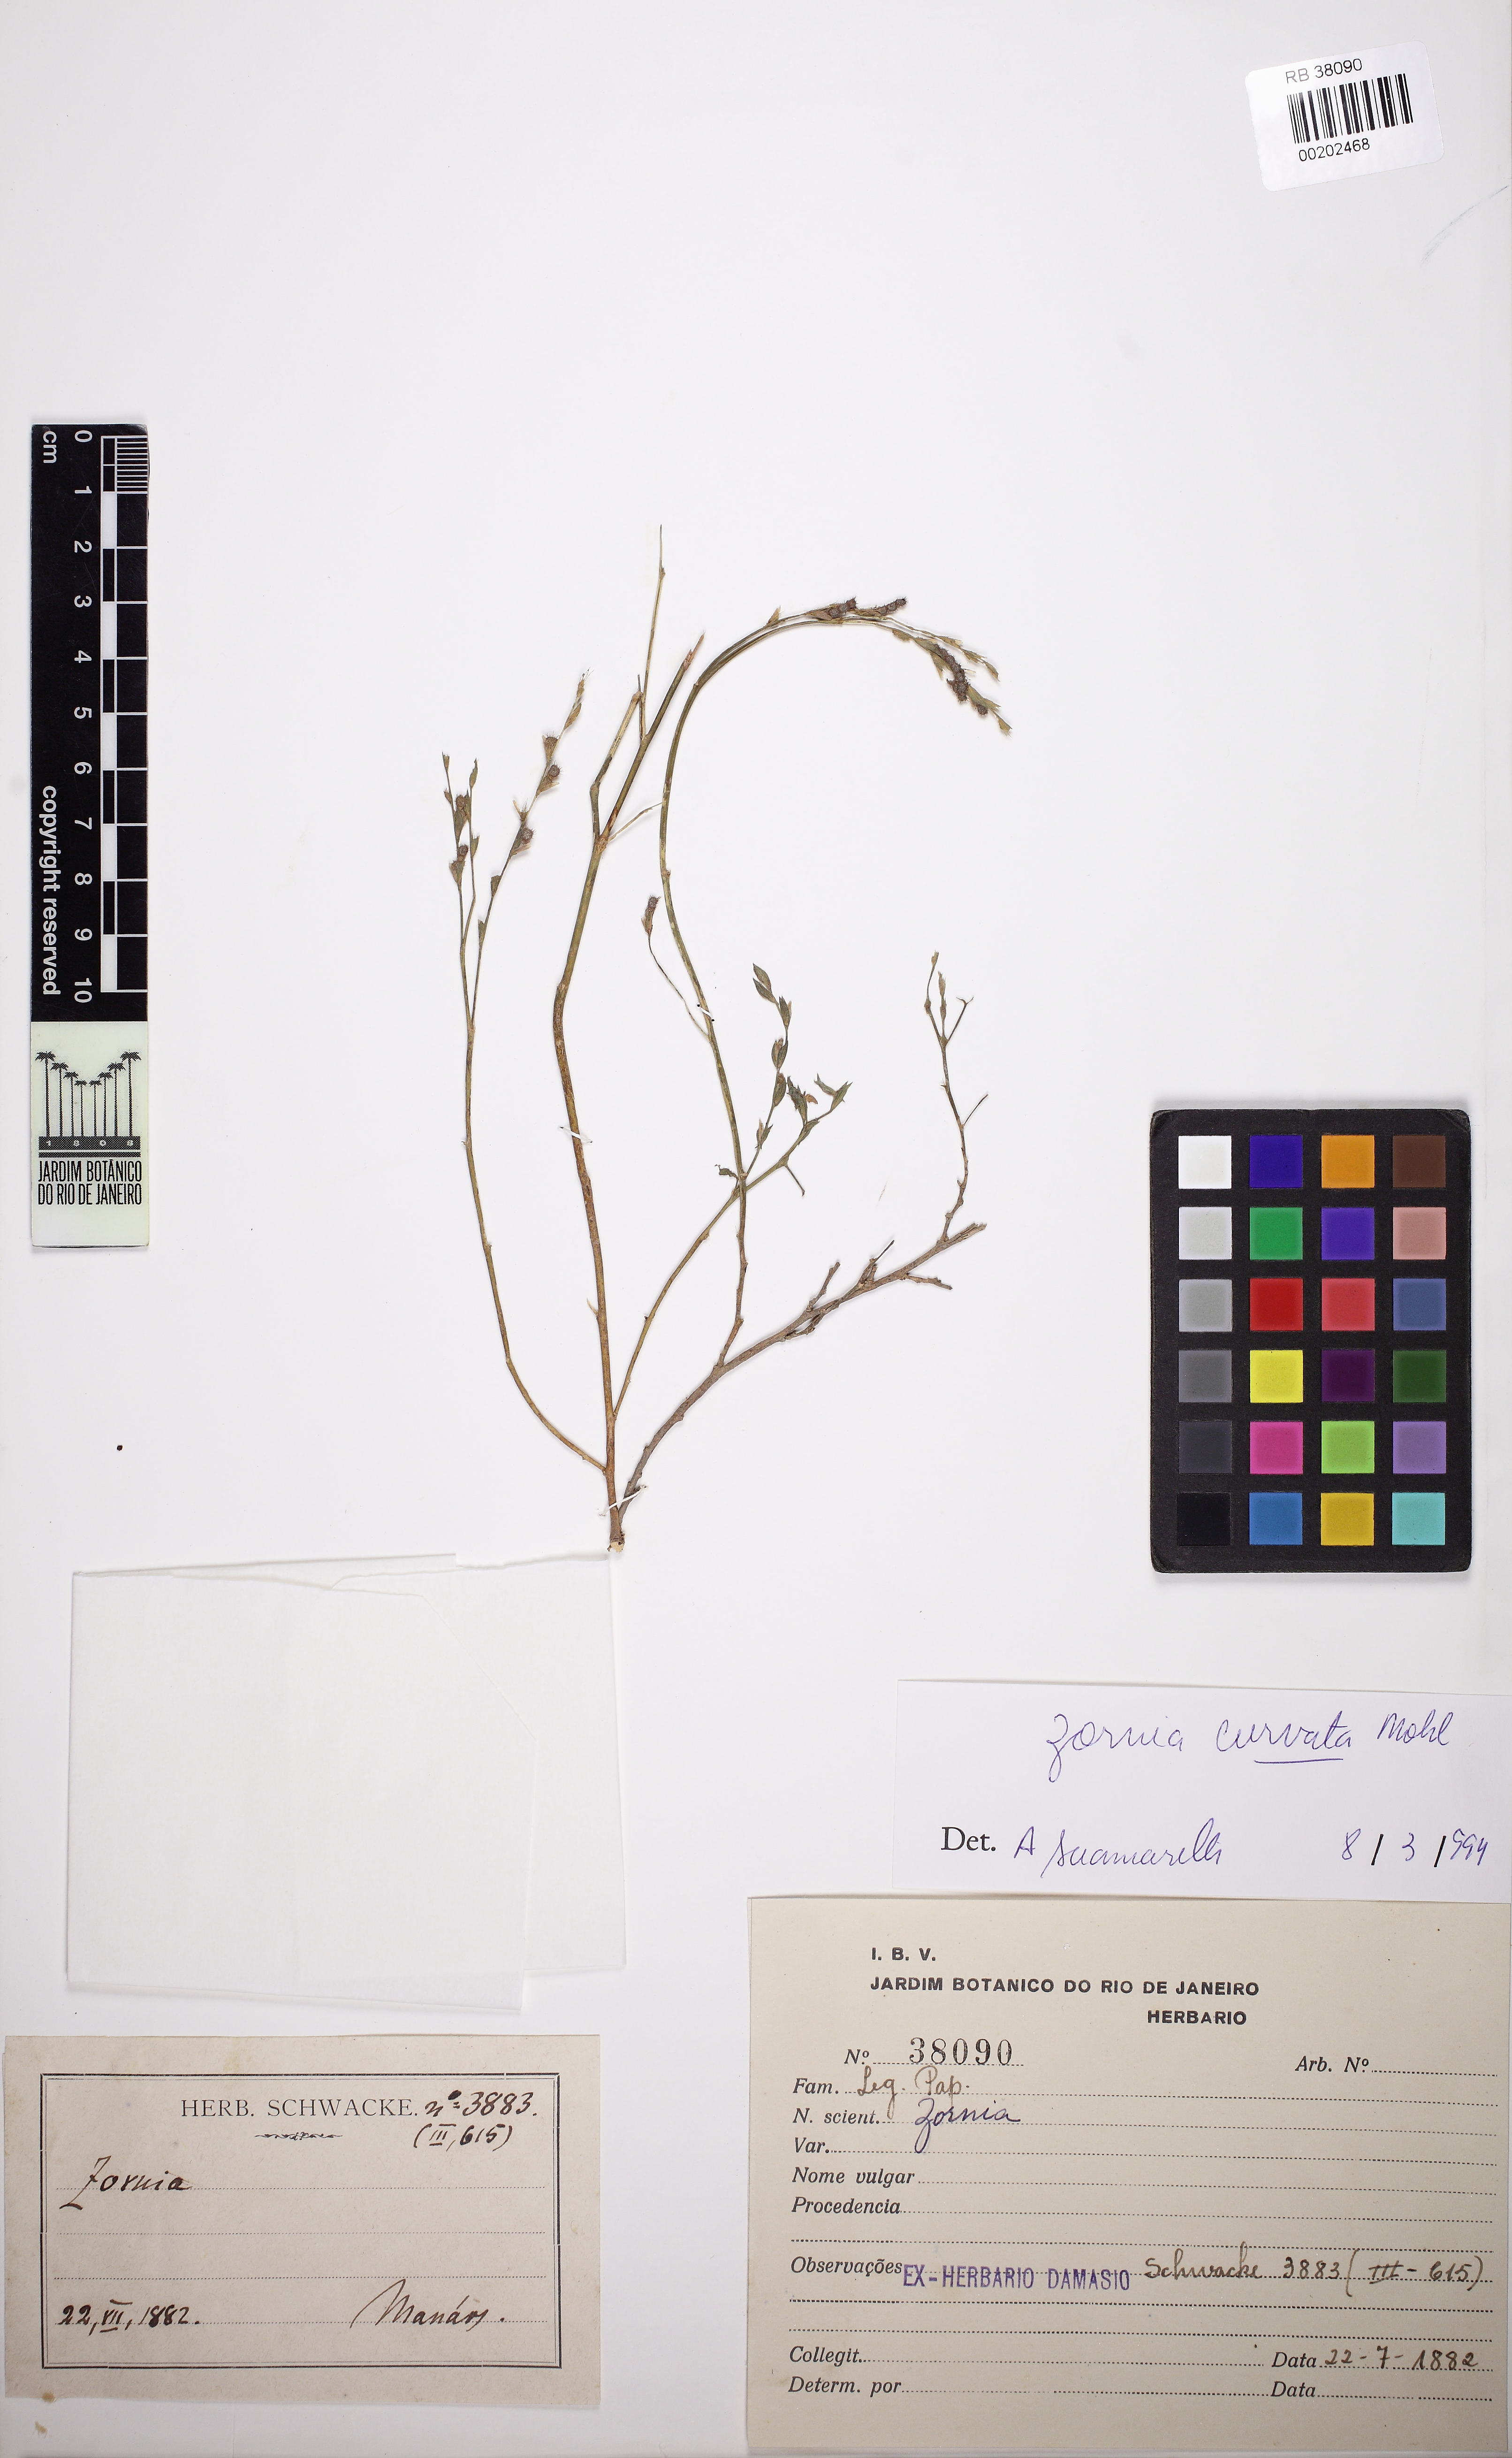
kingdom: Plantae
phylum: Tracheophyta
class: Magnoliopsida
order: Fabales
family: Fabaceae
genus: Zornia
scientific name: Zornia curvata
